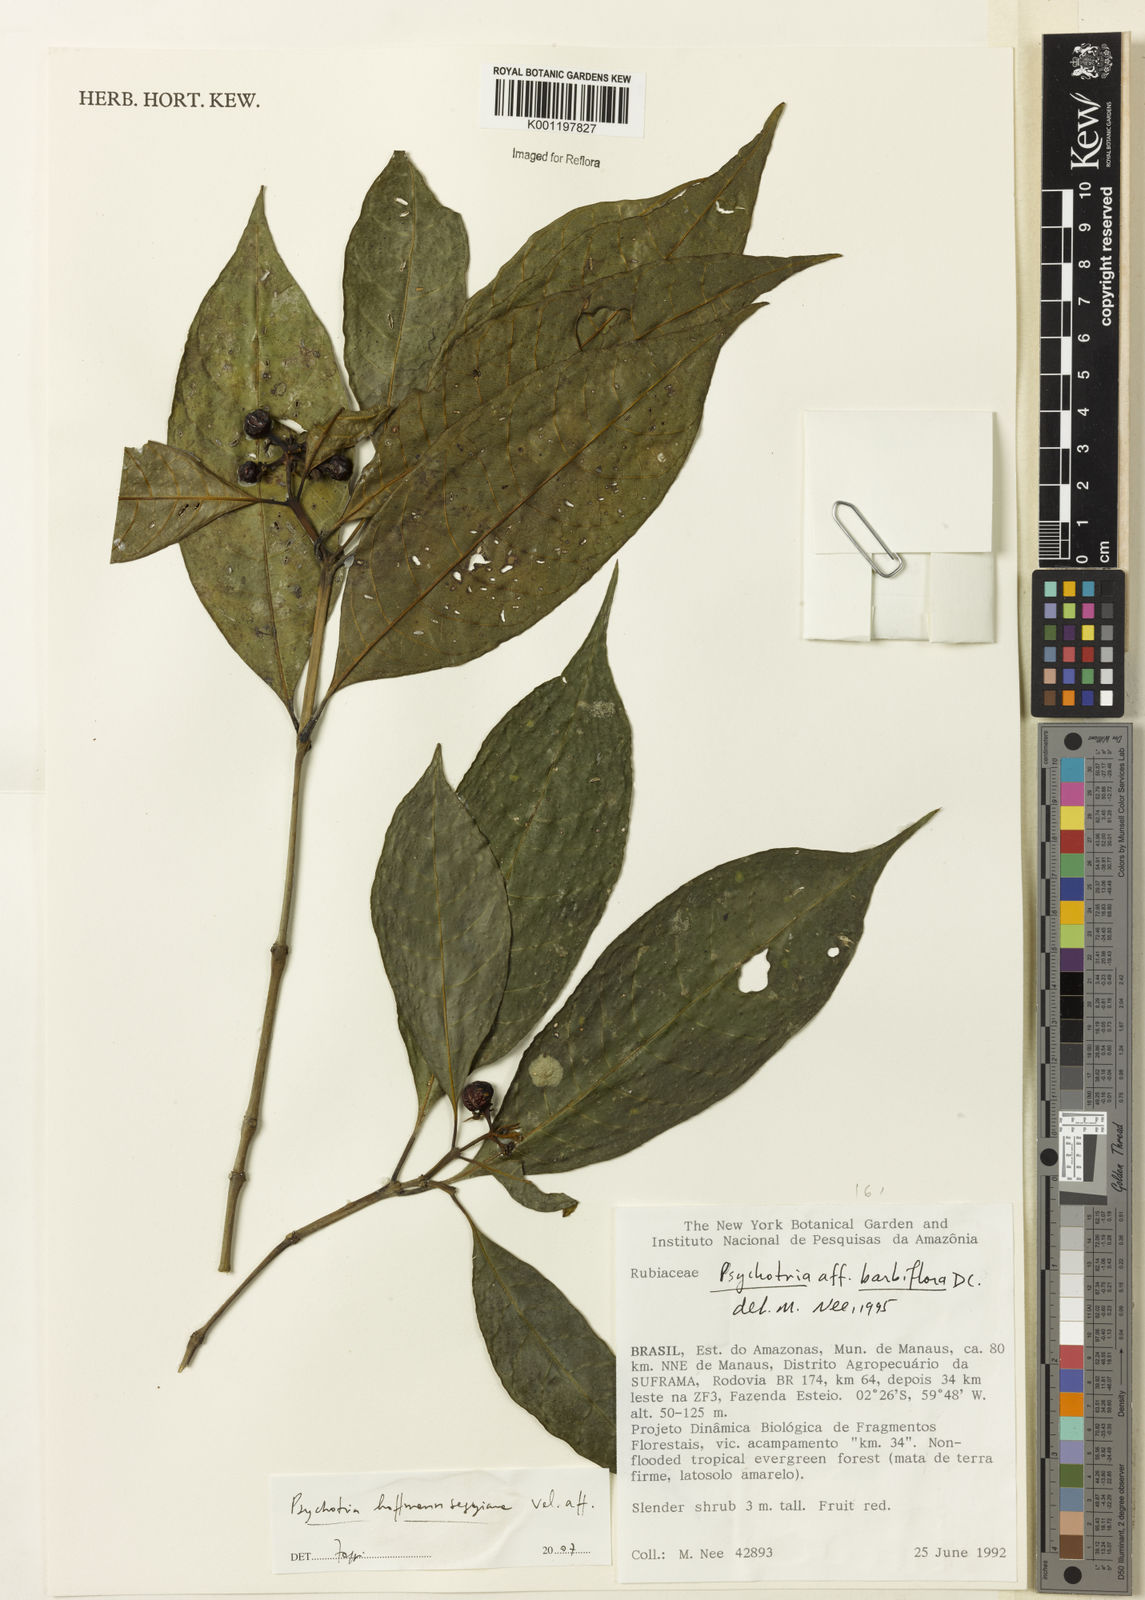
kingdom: Plantae
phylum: Tracheophyta
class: Magnoliopsida
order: Gentianales
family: Rubiaceae
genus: Psychotria
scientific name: Psychotria
